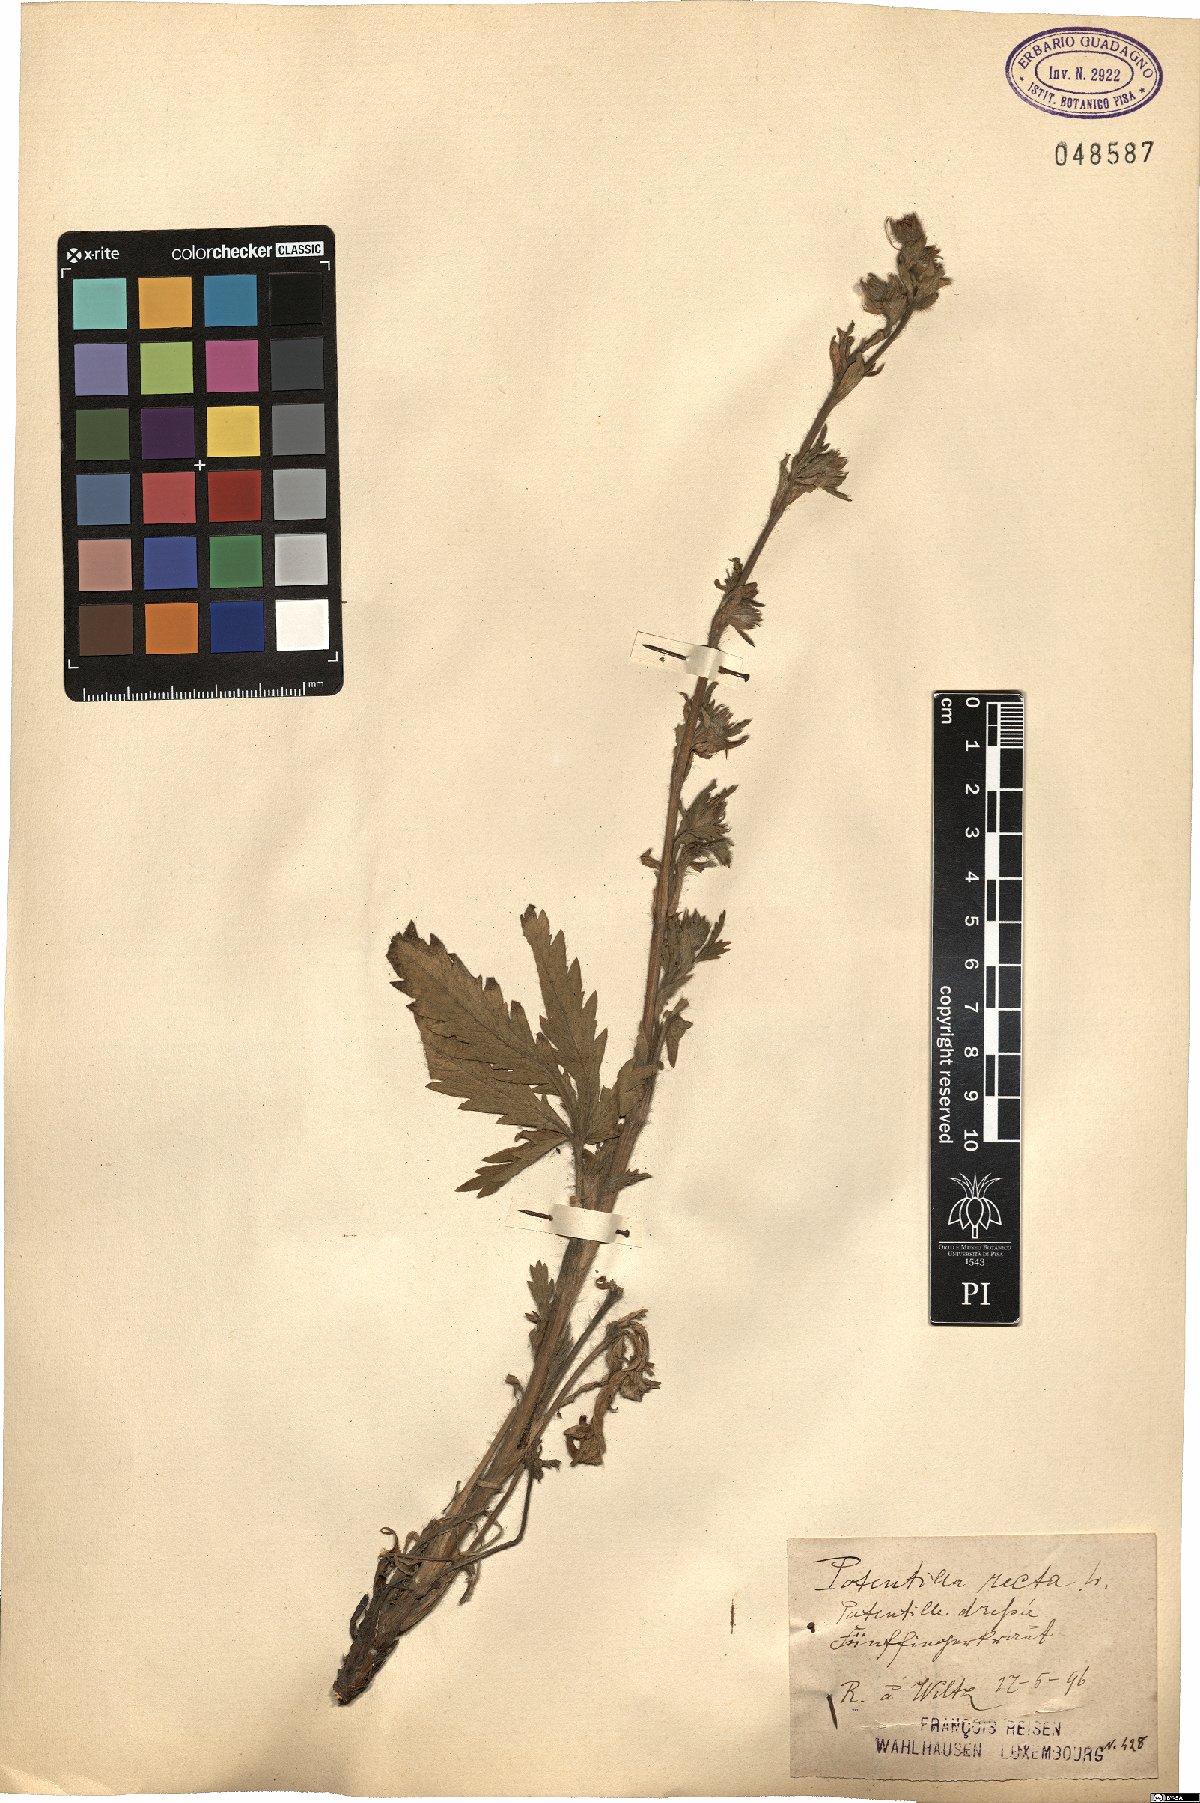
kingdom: Plantae
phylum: Tracheophyta
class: Magnoliopsida
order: Rosales
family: Rosaceae
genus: Potentilla
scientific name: Potentilla recta
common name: Sulphur cinquefoil
